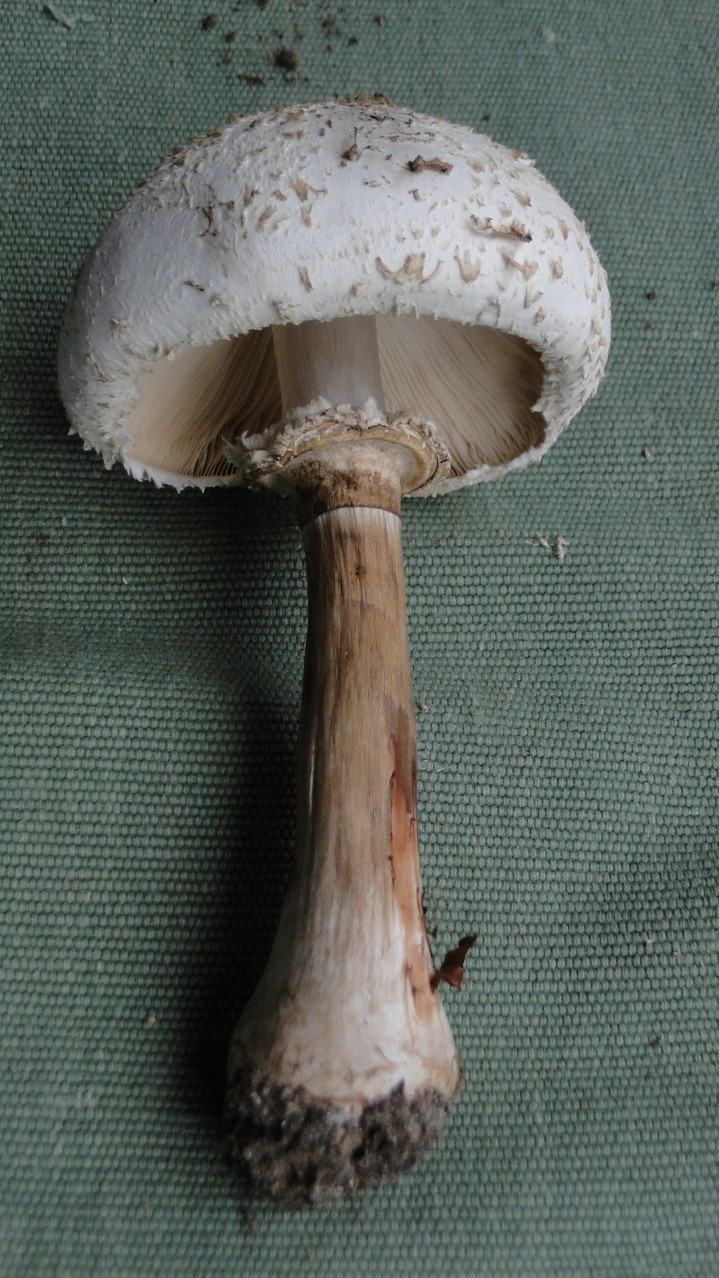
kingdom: Fungi
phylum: Basidiomycota
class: Agaricomycetes
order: Agaricales
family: Agaricaceae
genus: Chlorophyllum
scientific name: Chlorophyllum rhacodes
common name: ægte rabarberhat
